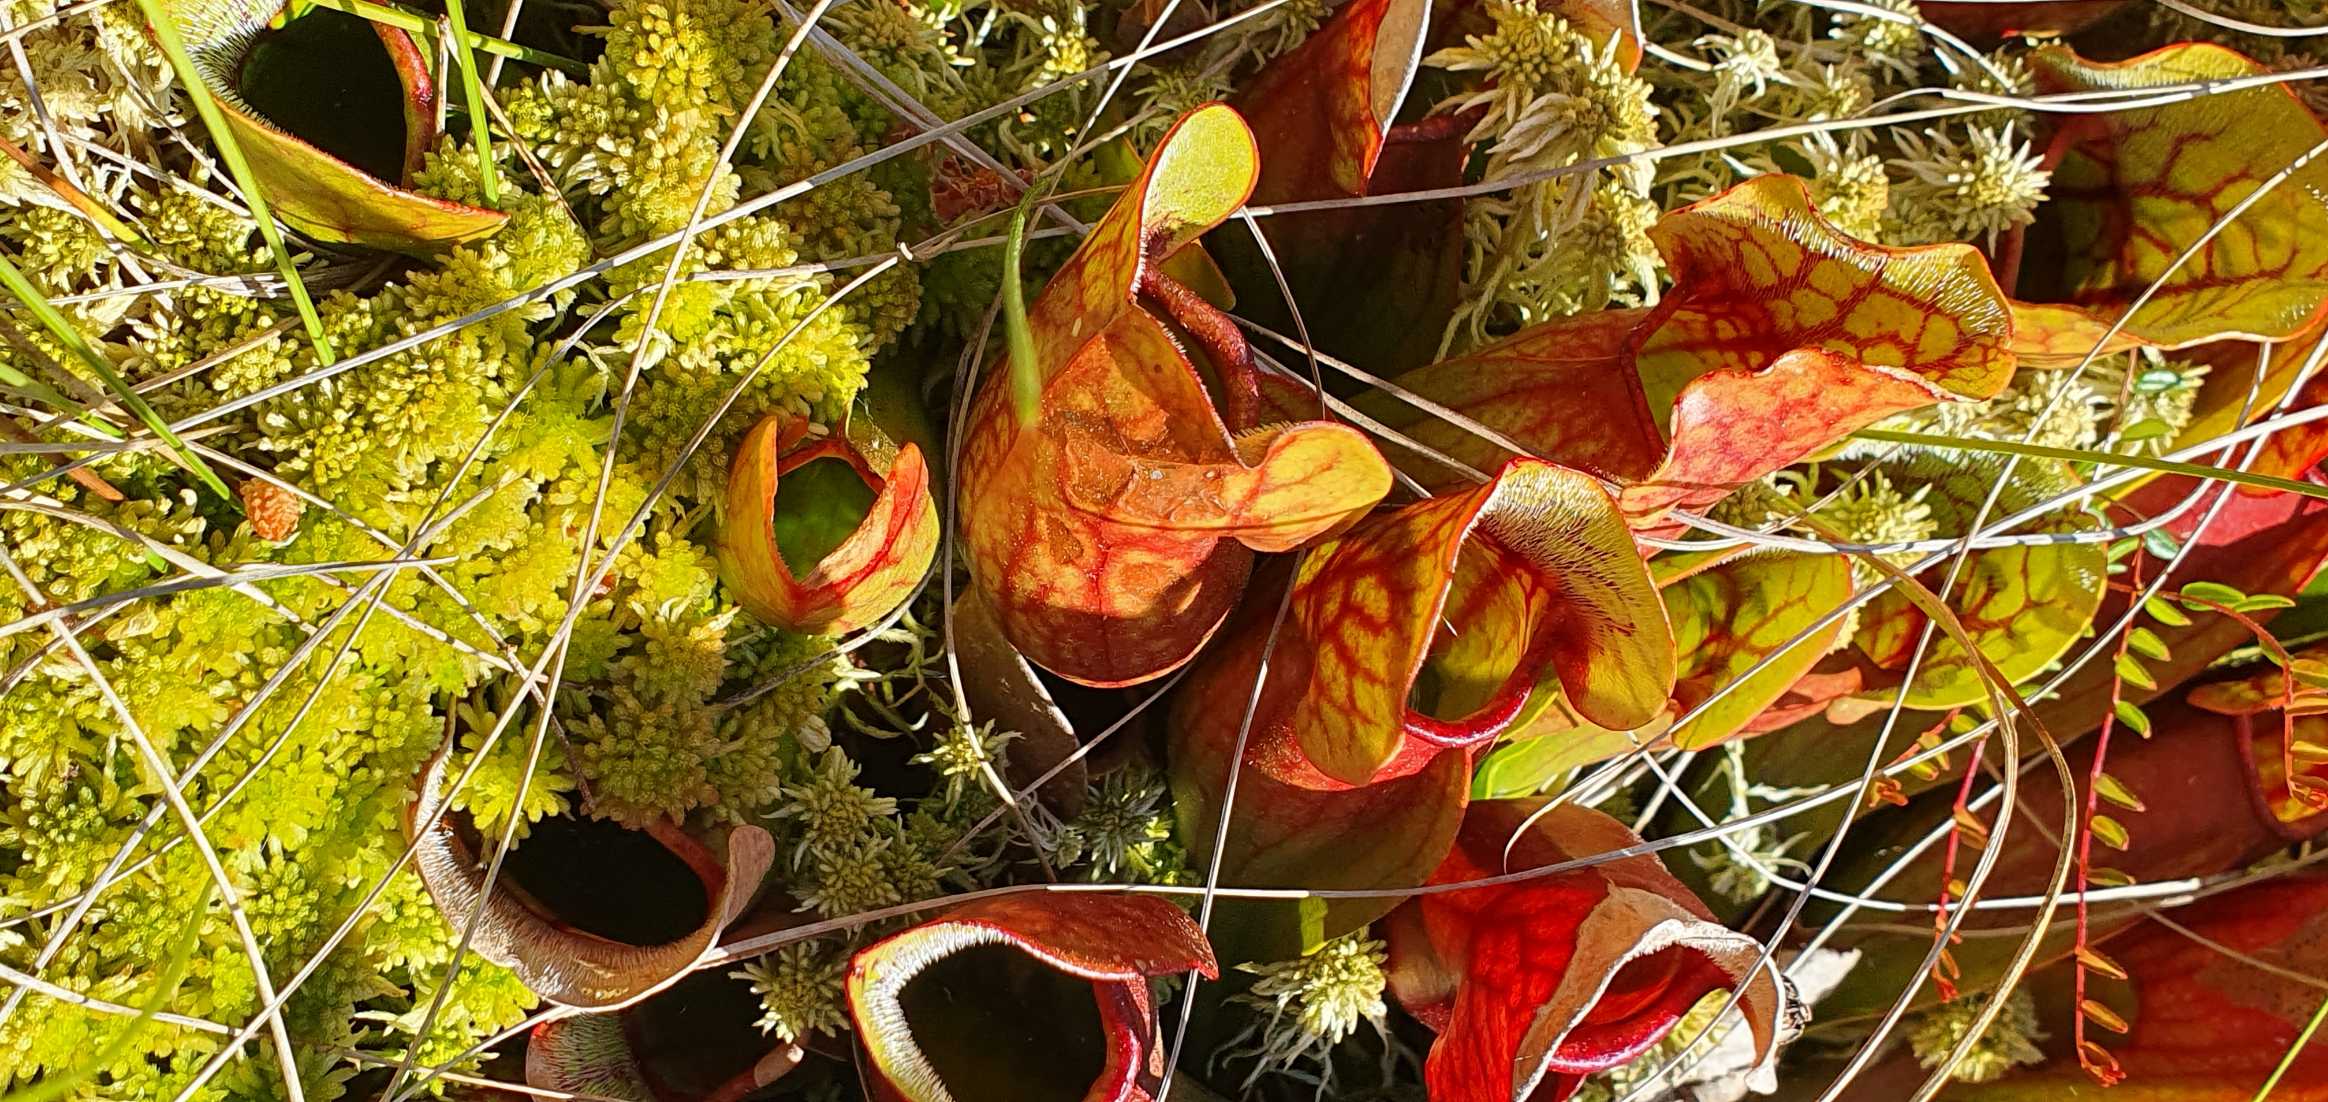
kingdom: Plantae
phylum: Tracheophyta
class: Magnoliopsida
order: Ericales
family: Sarraceniaceae
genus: Sarracenia
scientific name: Sarracenia purpurea
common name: Trompetblad
